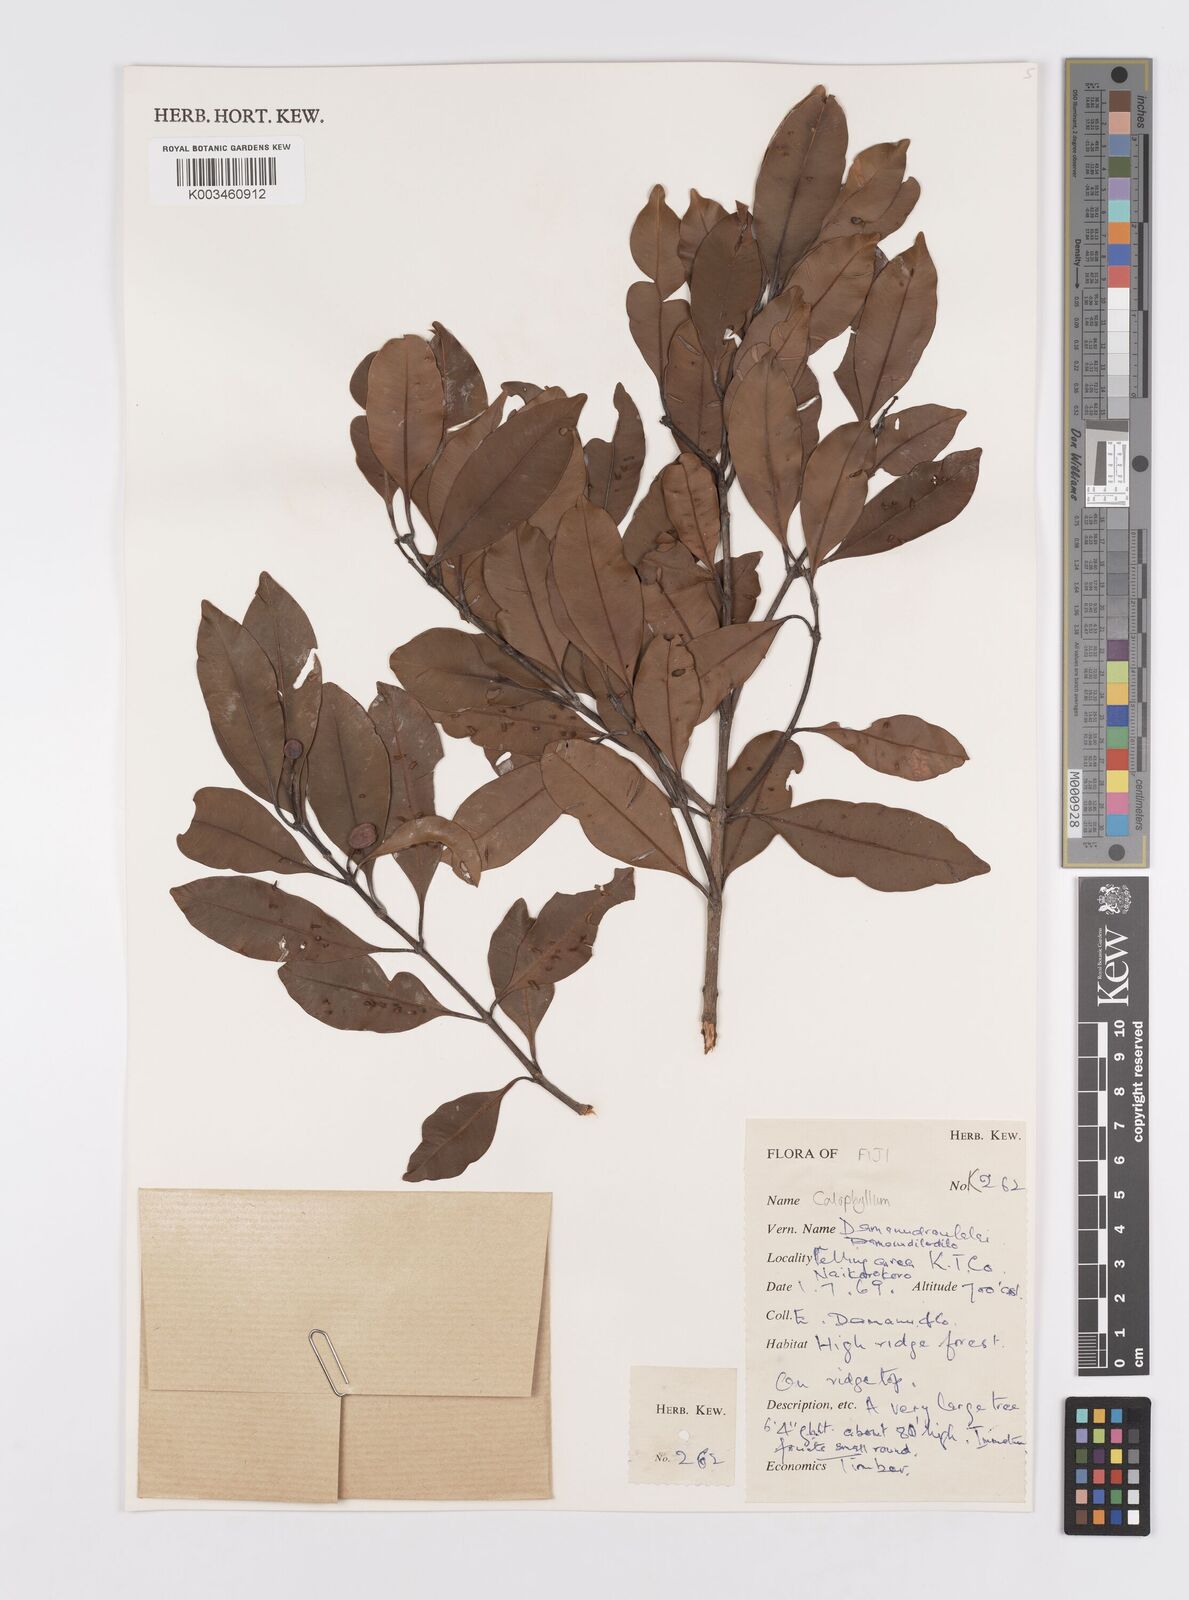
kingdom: Plantae
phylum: Tracheophyta
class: Magnoliopsida
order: Malpighiales
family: Calophyllaceae
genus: Calophyllum
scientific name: Calophyllum
